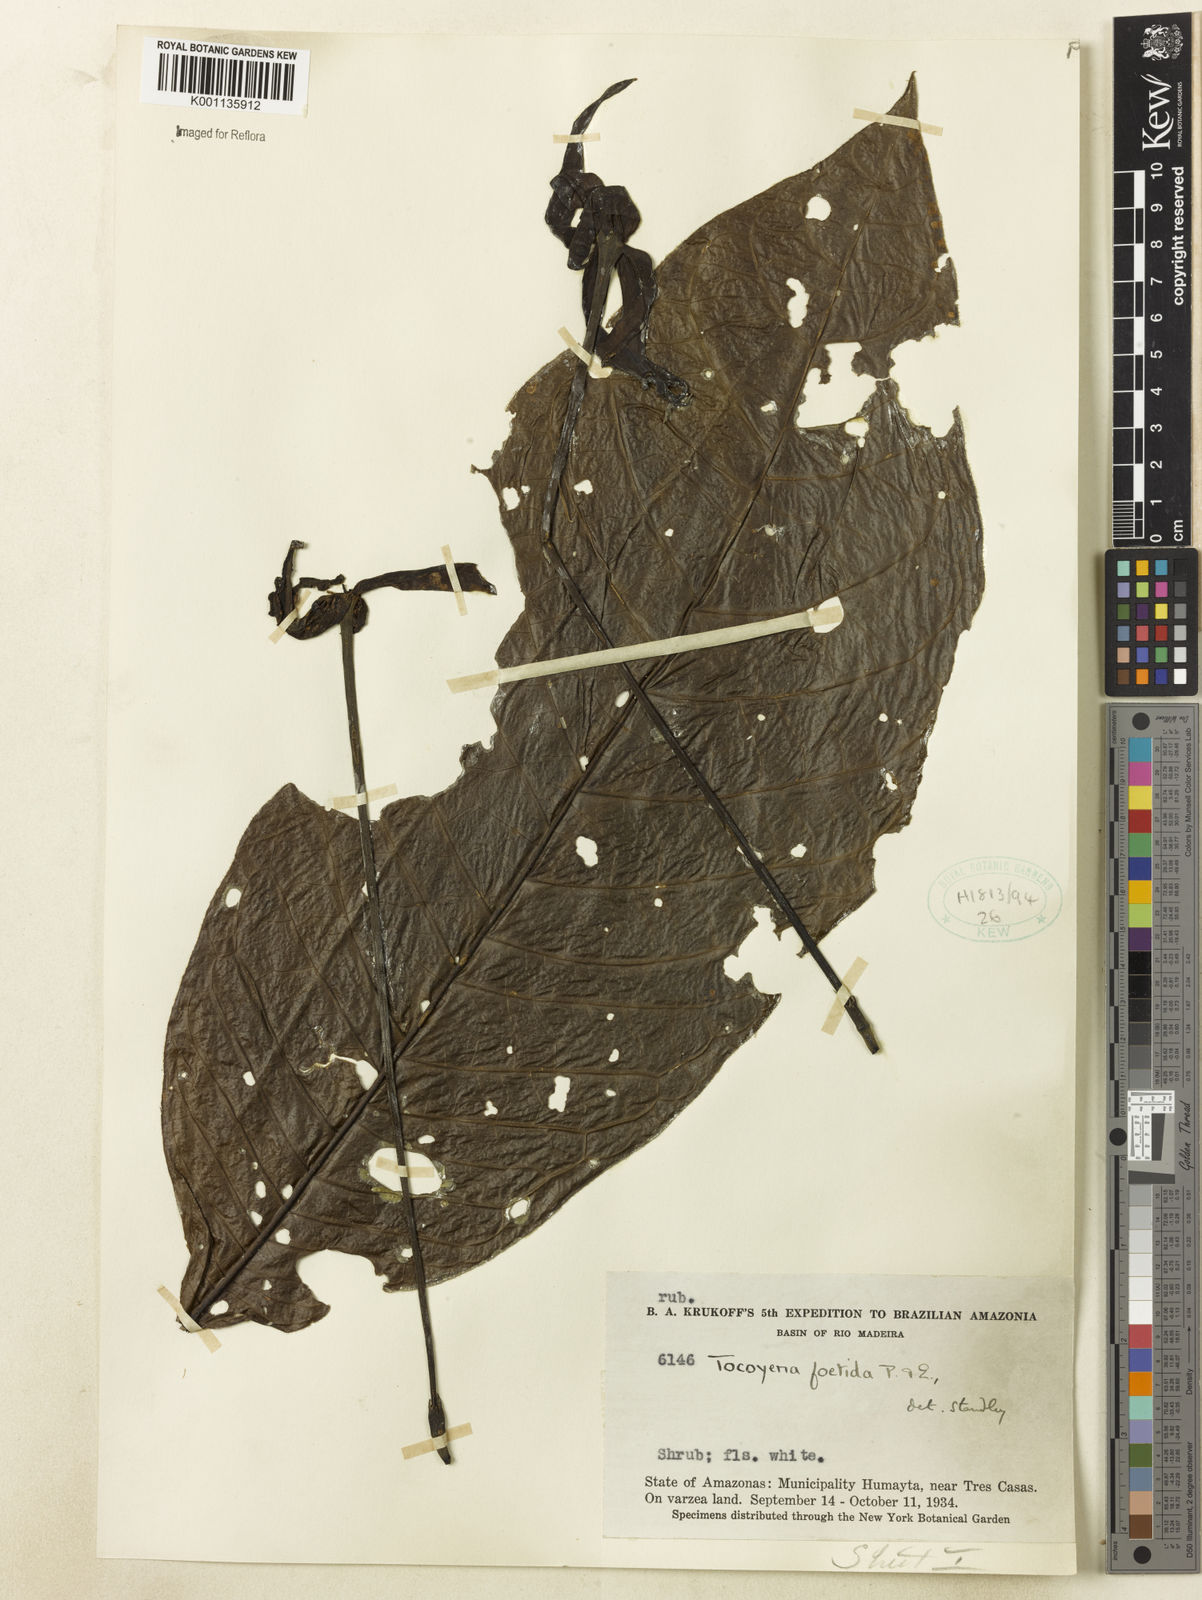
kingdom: Plantae
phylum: Tracheophyta
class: Magnoliopsida
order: Gentianales
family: Rubiaceae
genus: Tocoyena
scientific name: Tocoyena foetida
